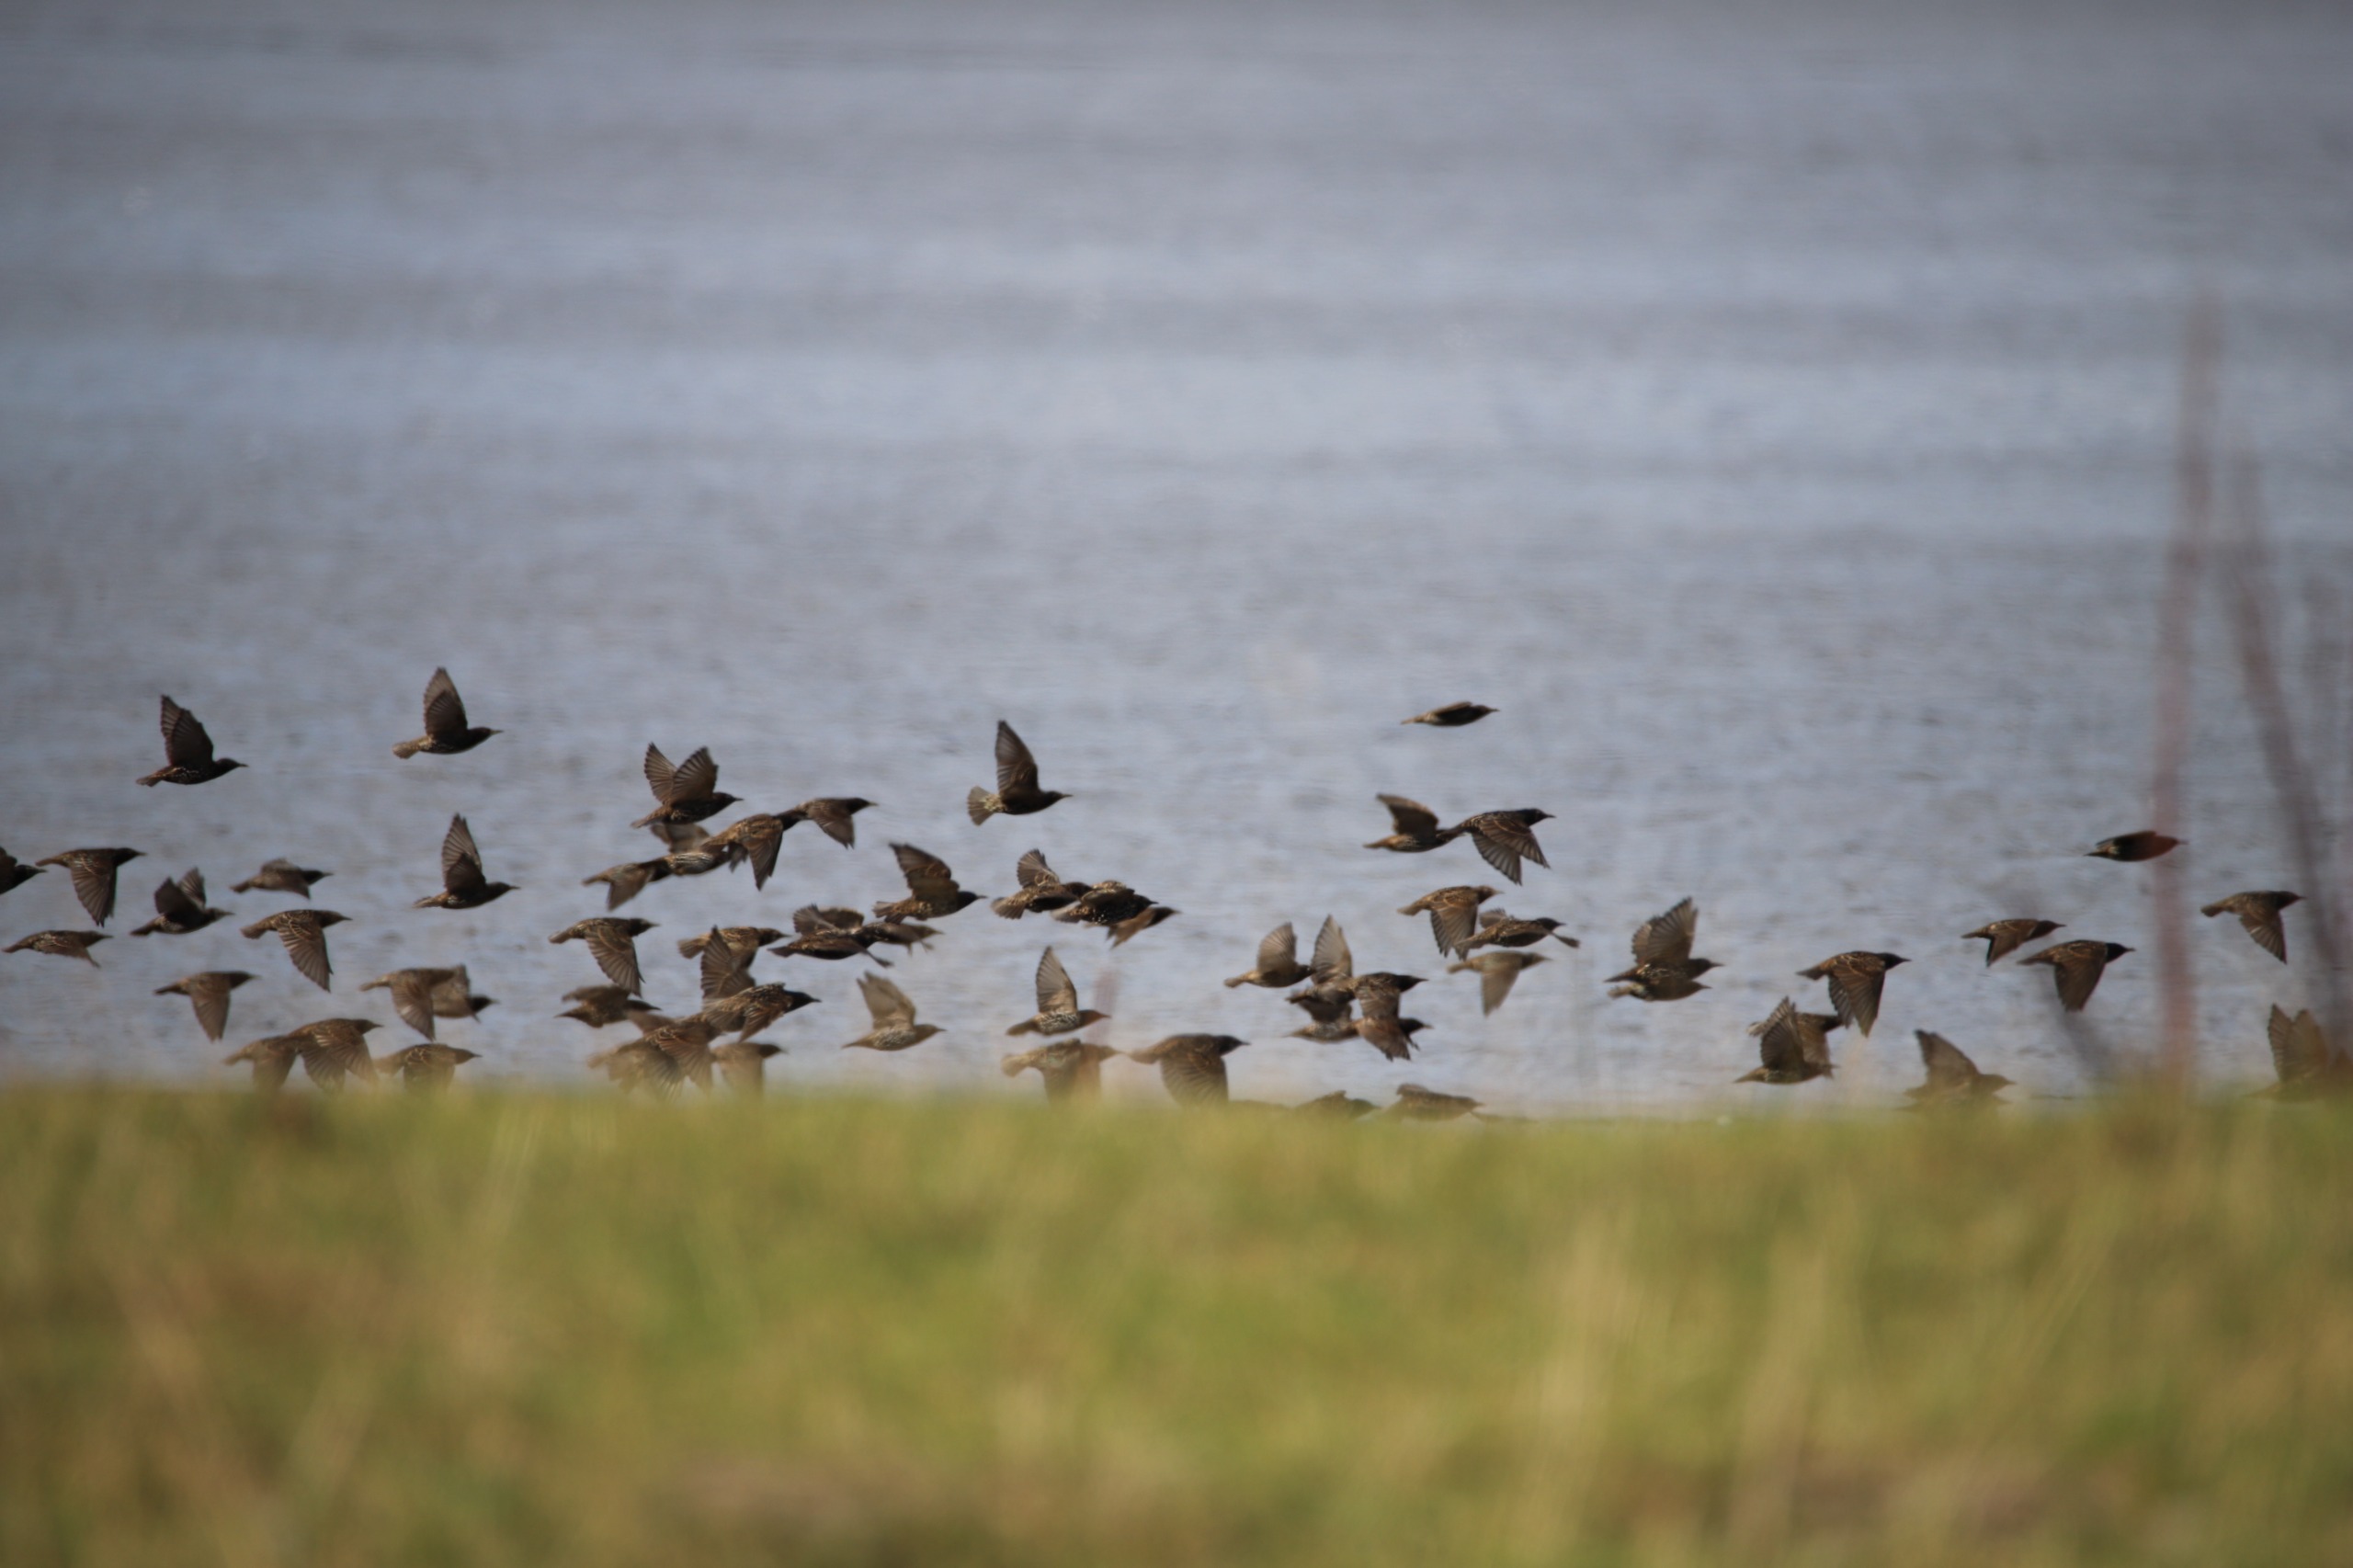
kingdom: Animalia
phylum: Chordata
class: Aves
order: Passeriformes
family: Sturnidae
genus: Sturnus
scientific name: Sturnus vulgaris
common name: Stær
